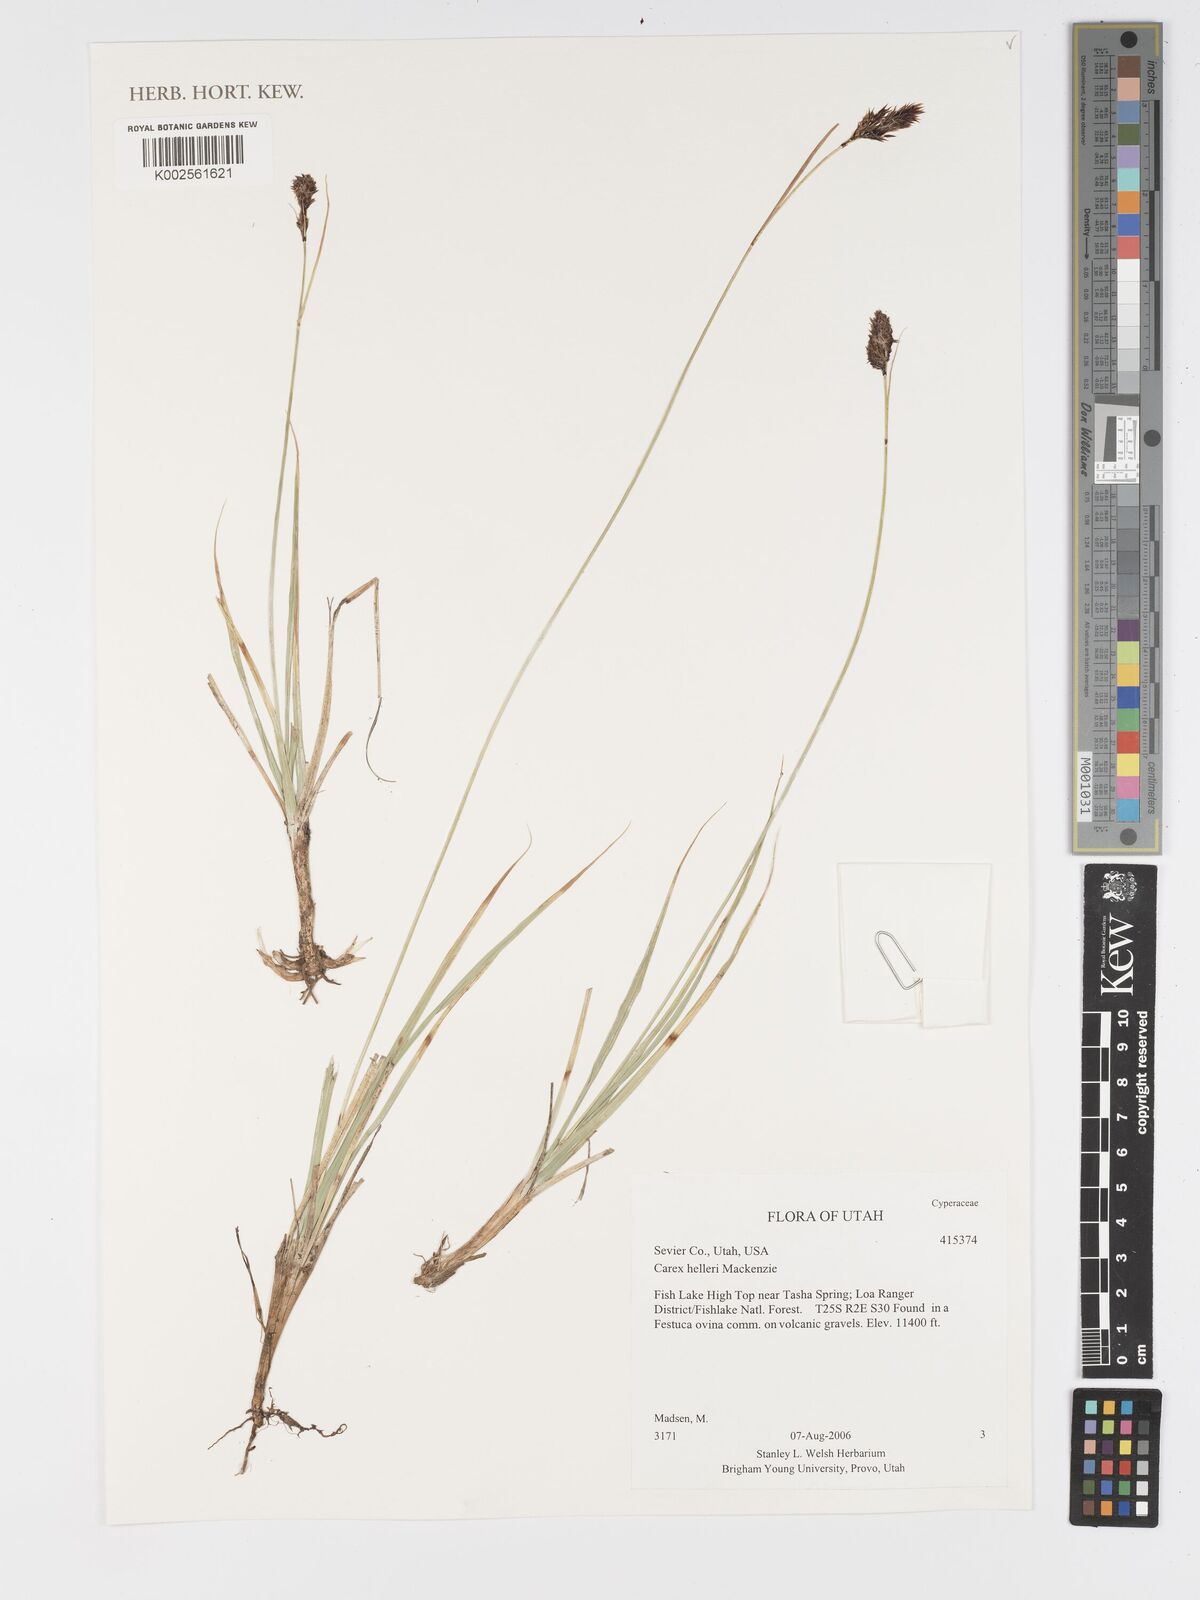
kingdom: Plantae
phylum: Tracheophyta
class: Liliopsida
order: Poales
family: Cyperaceae
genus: Carex
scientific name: Carex helleri
